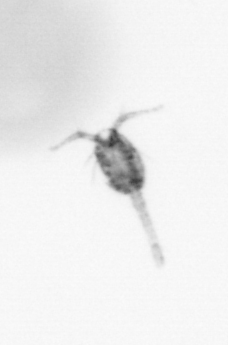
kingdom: Animalia
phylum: Arthropoda
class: Copepoda
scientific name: Copepoda
